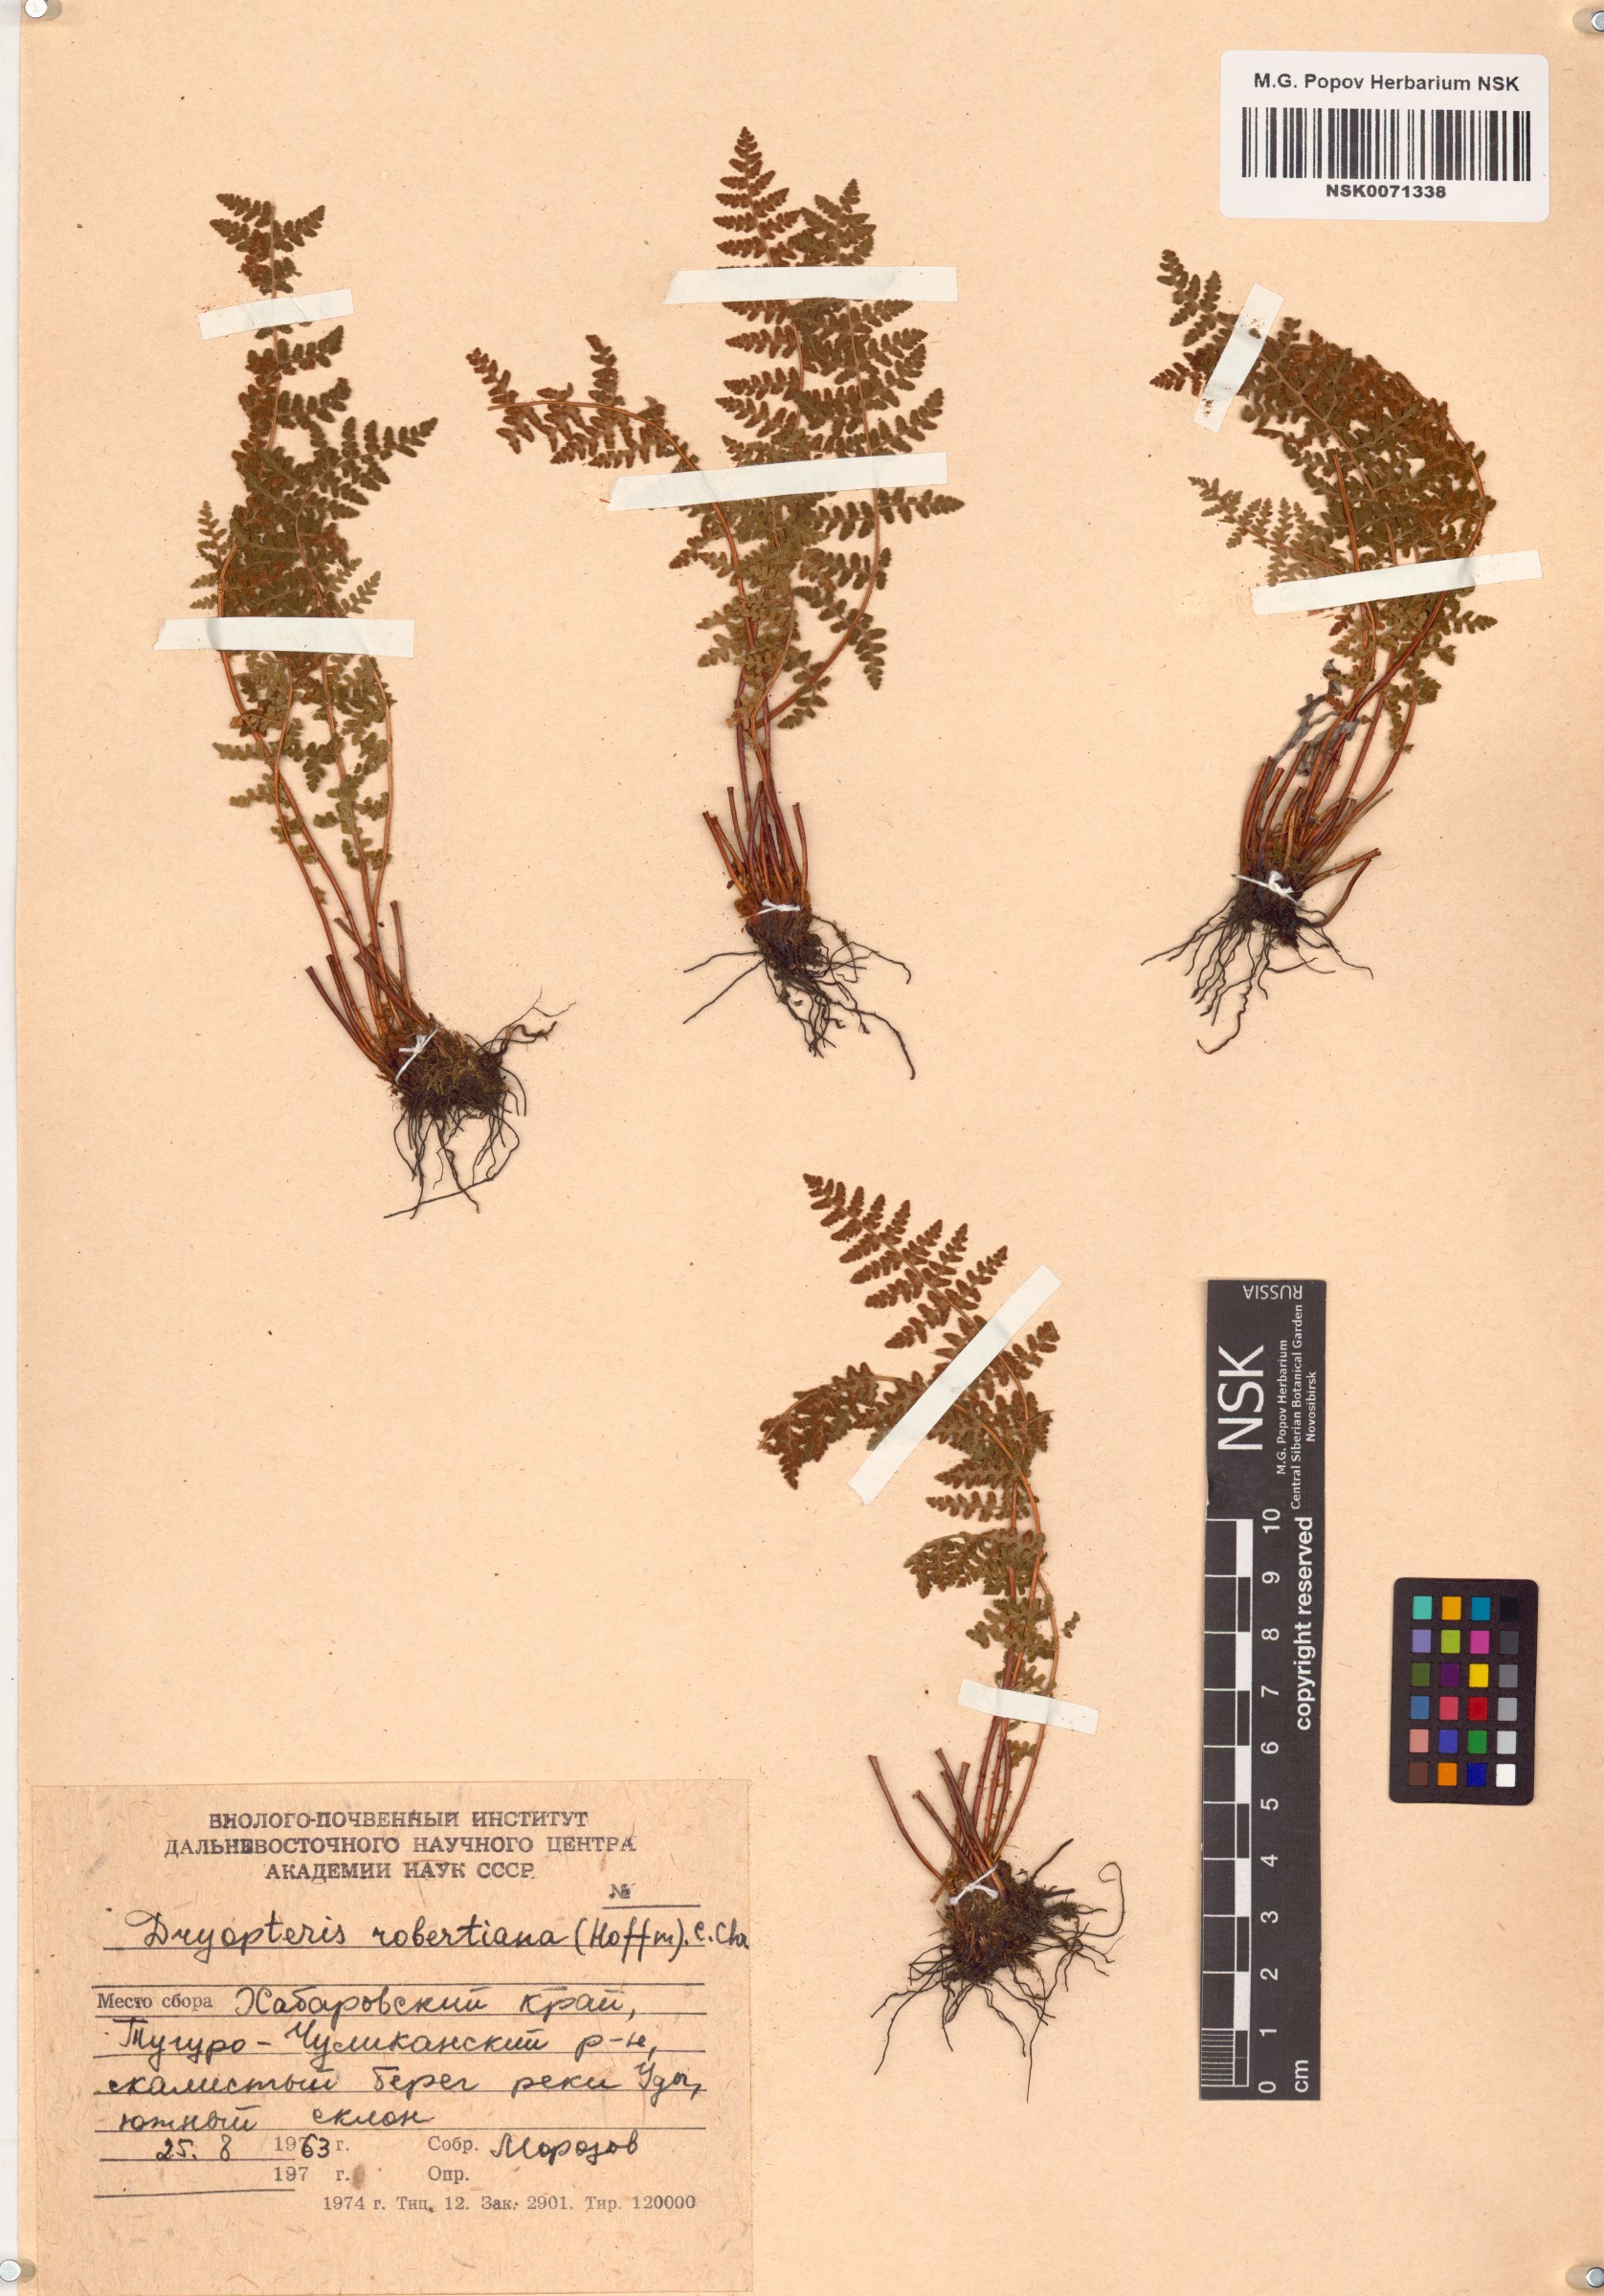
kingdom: Plantae
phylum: Tracheophyta
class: Polypodiopsida
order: Polypodiales
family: Cystopteridaceae
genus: Gymnocarpium
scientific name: Gymnocarpium robertianum
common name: Limestone fern
